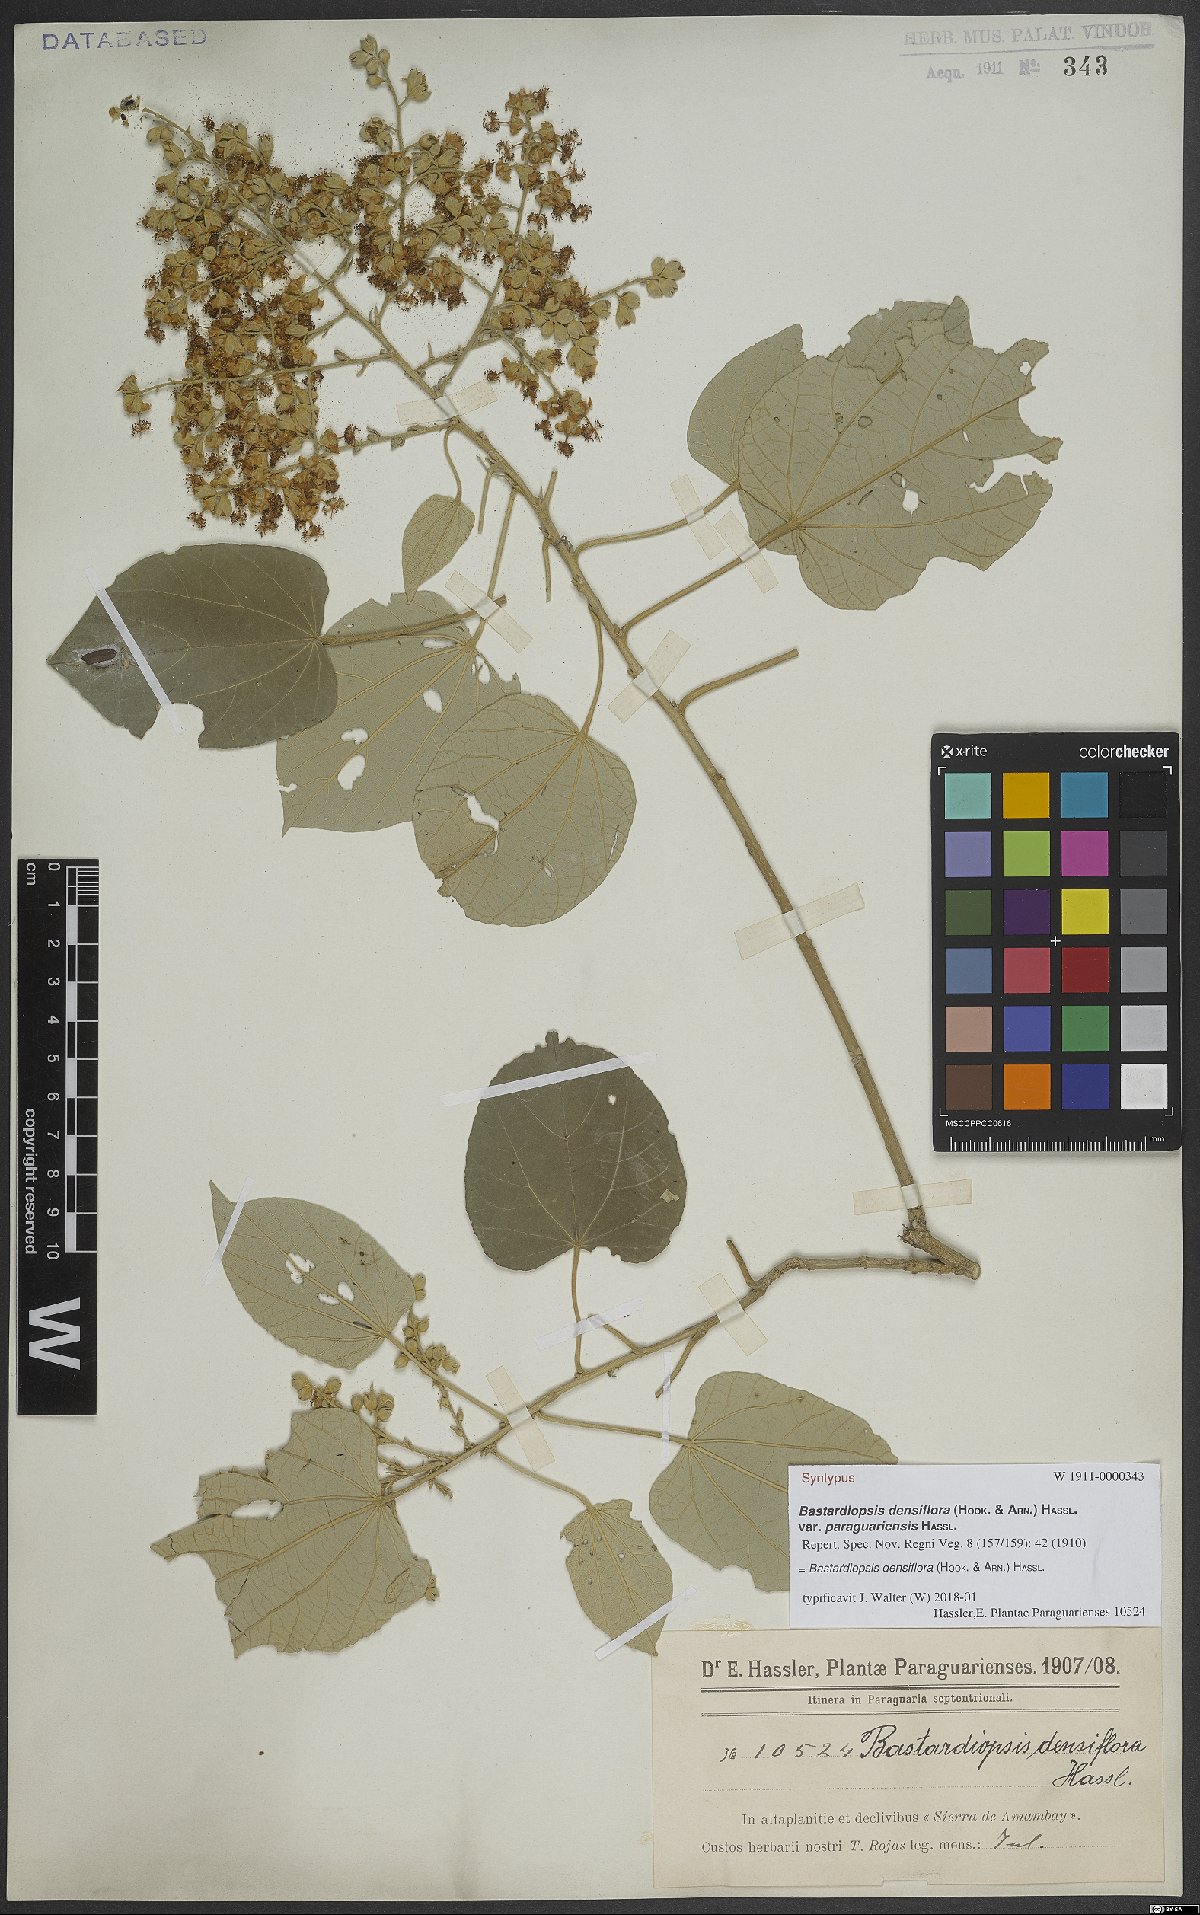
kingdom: Plantae
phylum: Tracheophyta
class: Magnoliopsida
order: Malvales
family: Malvaceae
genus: Bastardiopsis
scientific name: Bastardiopsis densiflora
